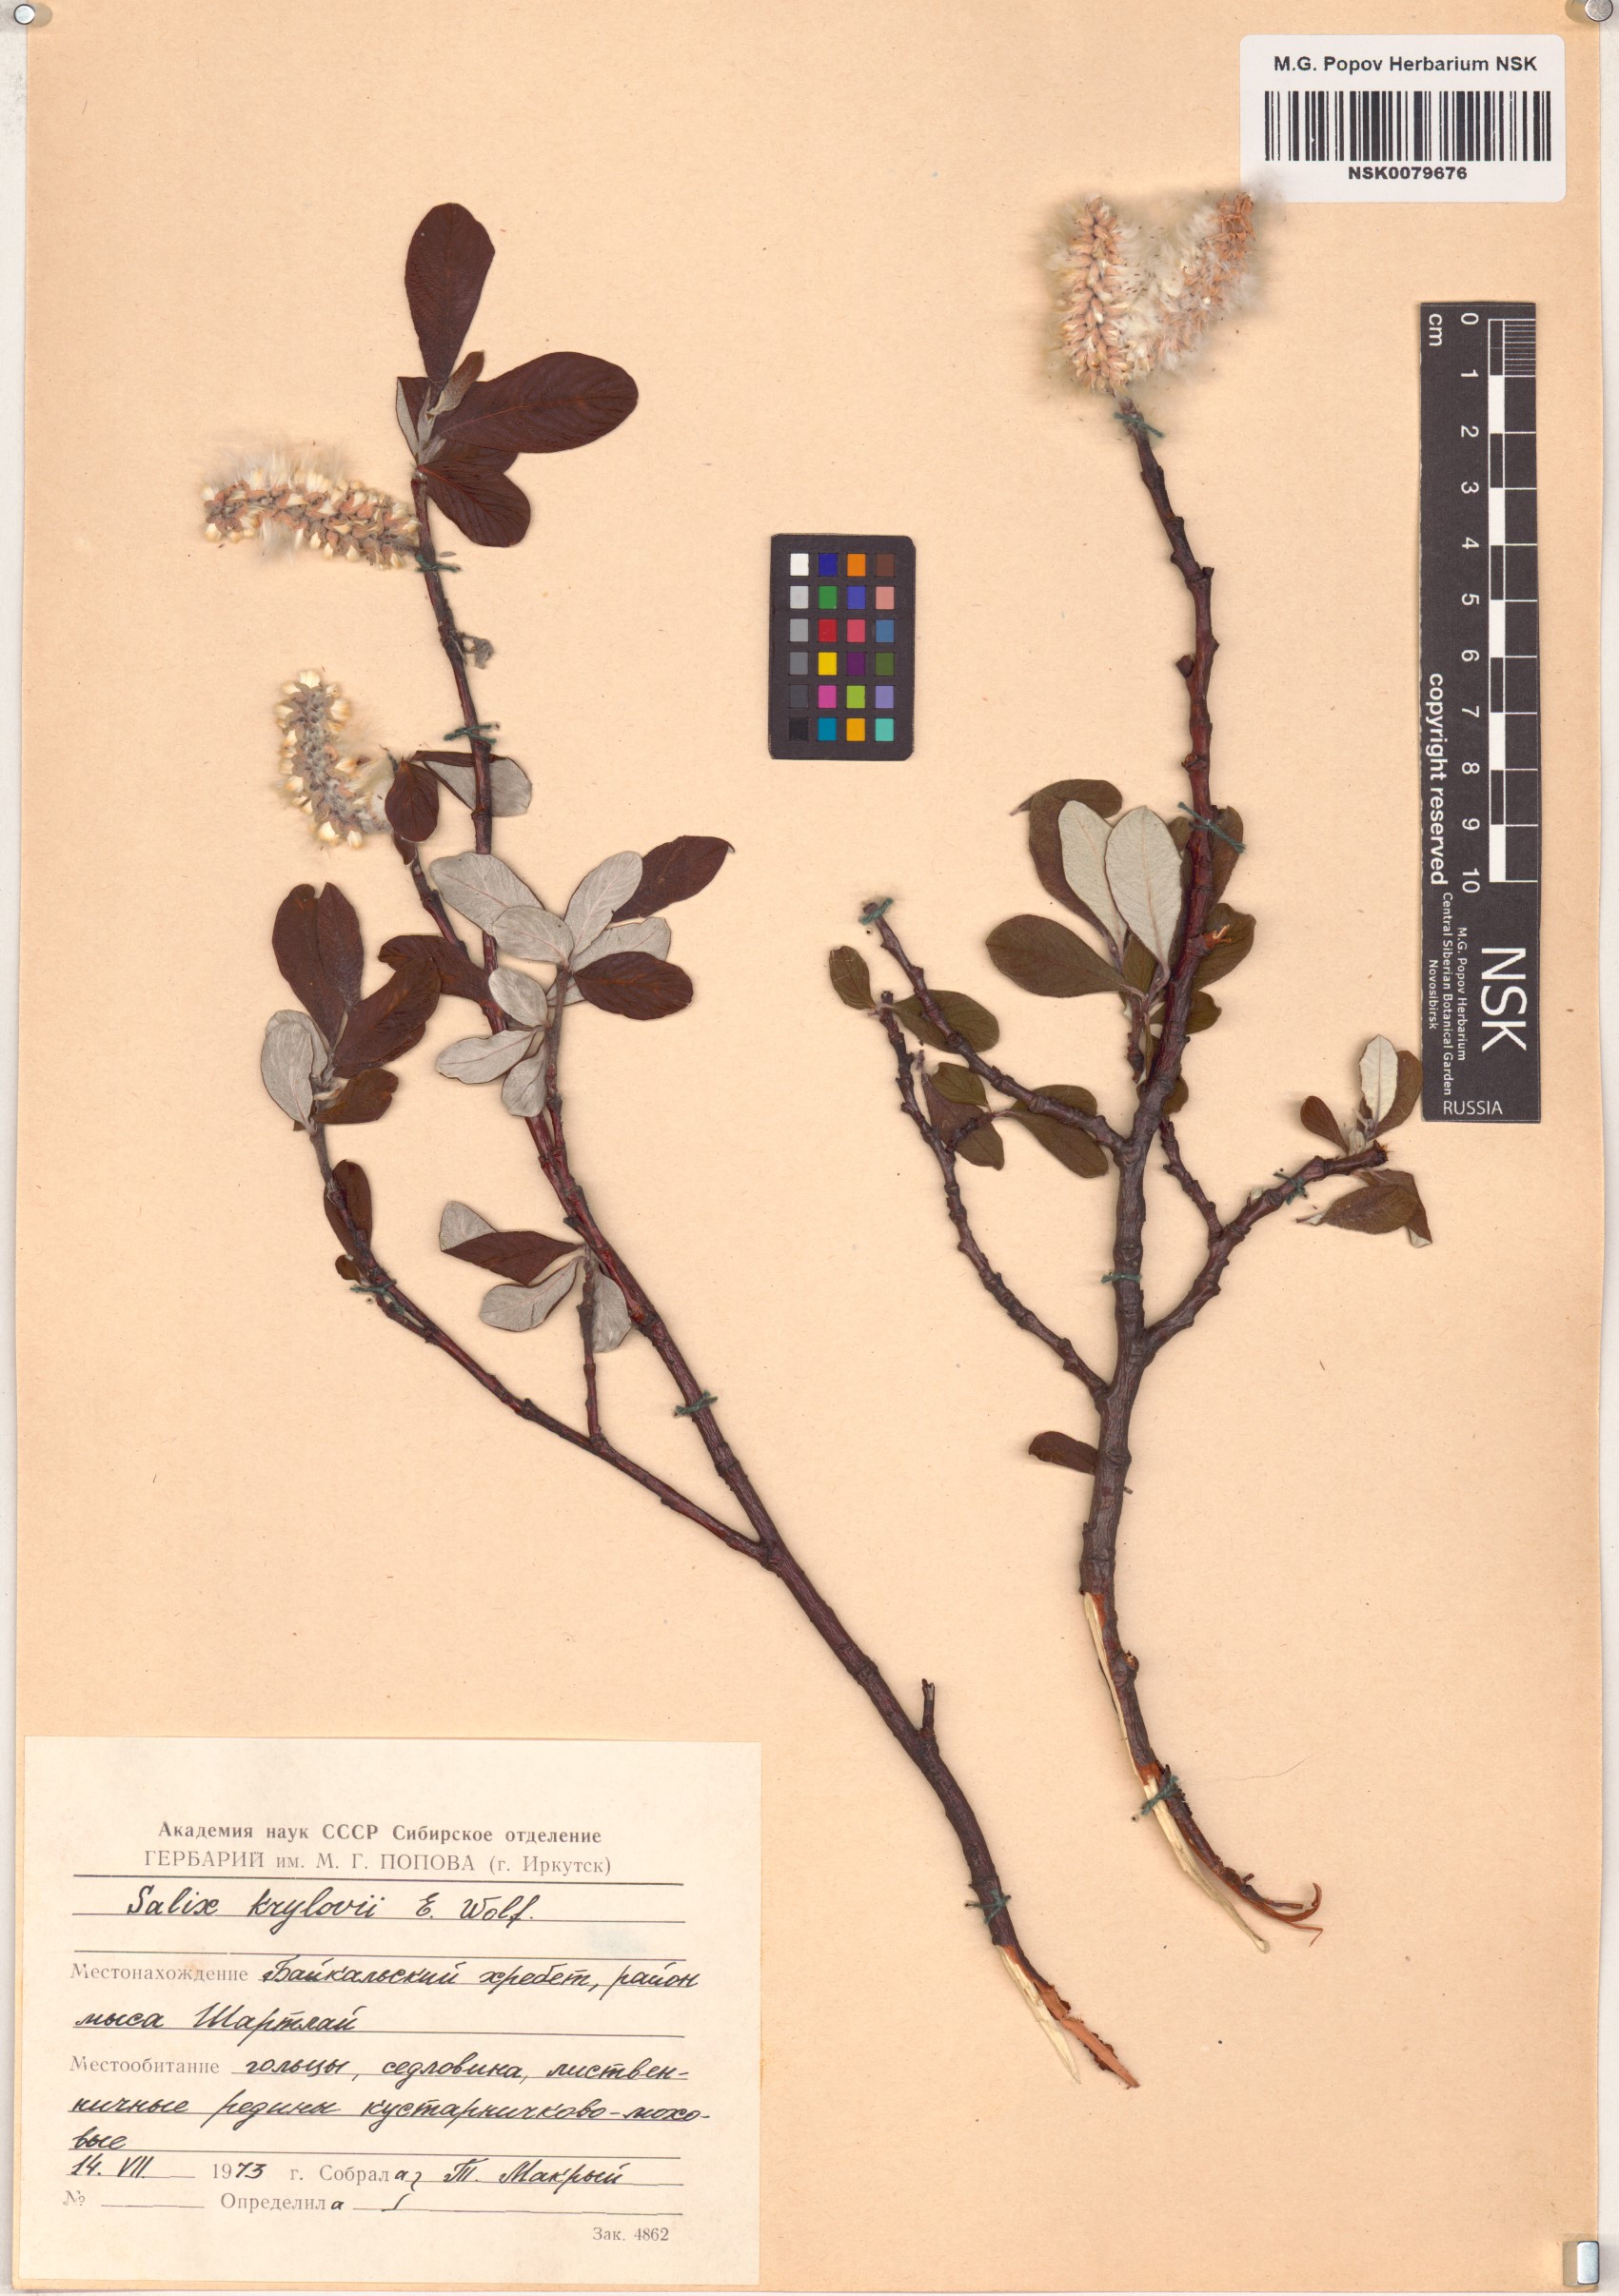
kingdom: Plantae
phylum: Tracheophyta
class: Magnoliopsida
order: Malpighiales
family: Salicaceae
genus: Salix
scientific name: Salix krylovii
